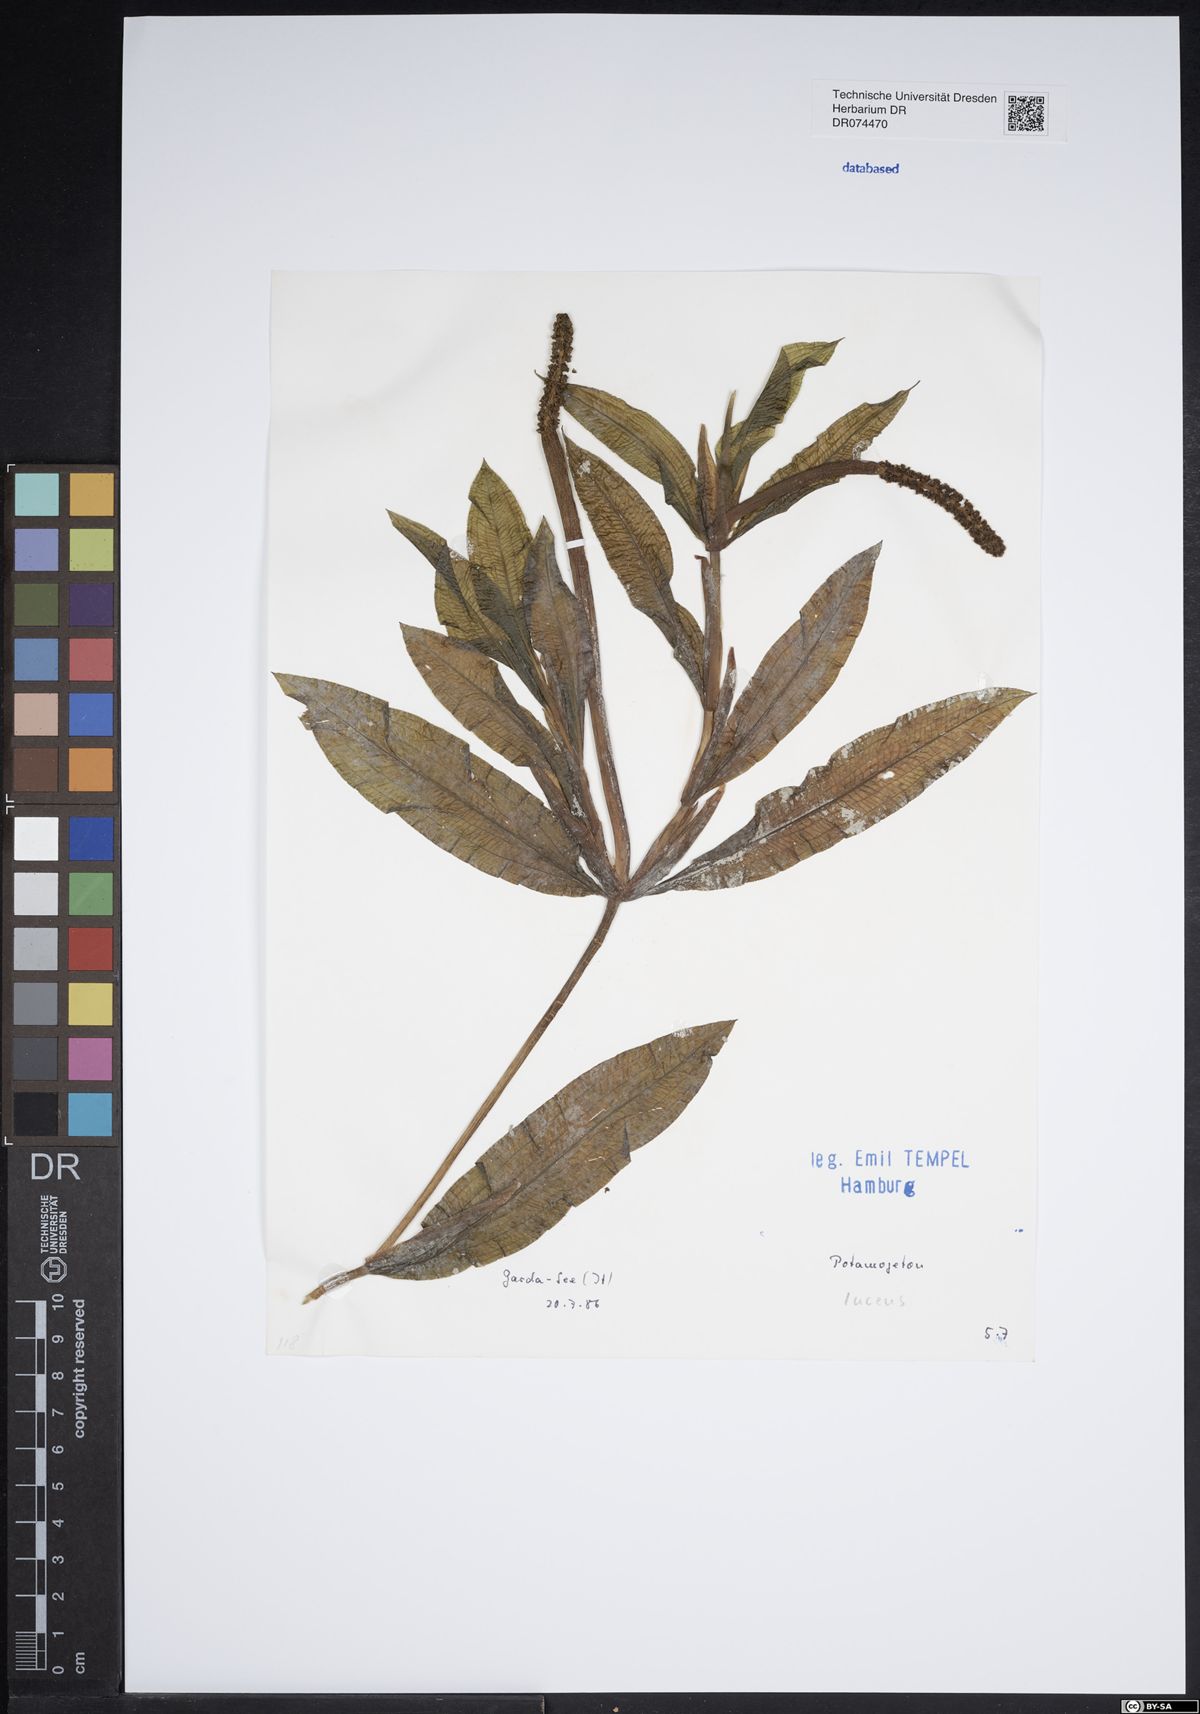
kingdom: Plantae
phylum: Tracheophyta
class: Liliopsida
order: Alismatales
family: Potamogetonaceae
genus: Potamogeton
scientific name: Potamogeton lucens
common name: Shining pondweed
